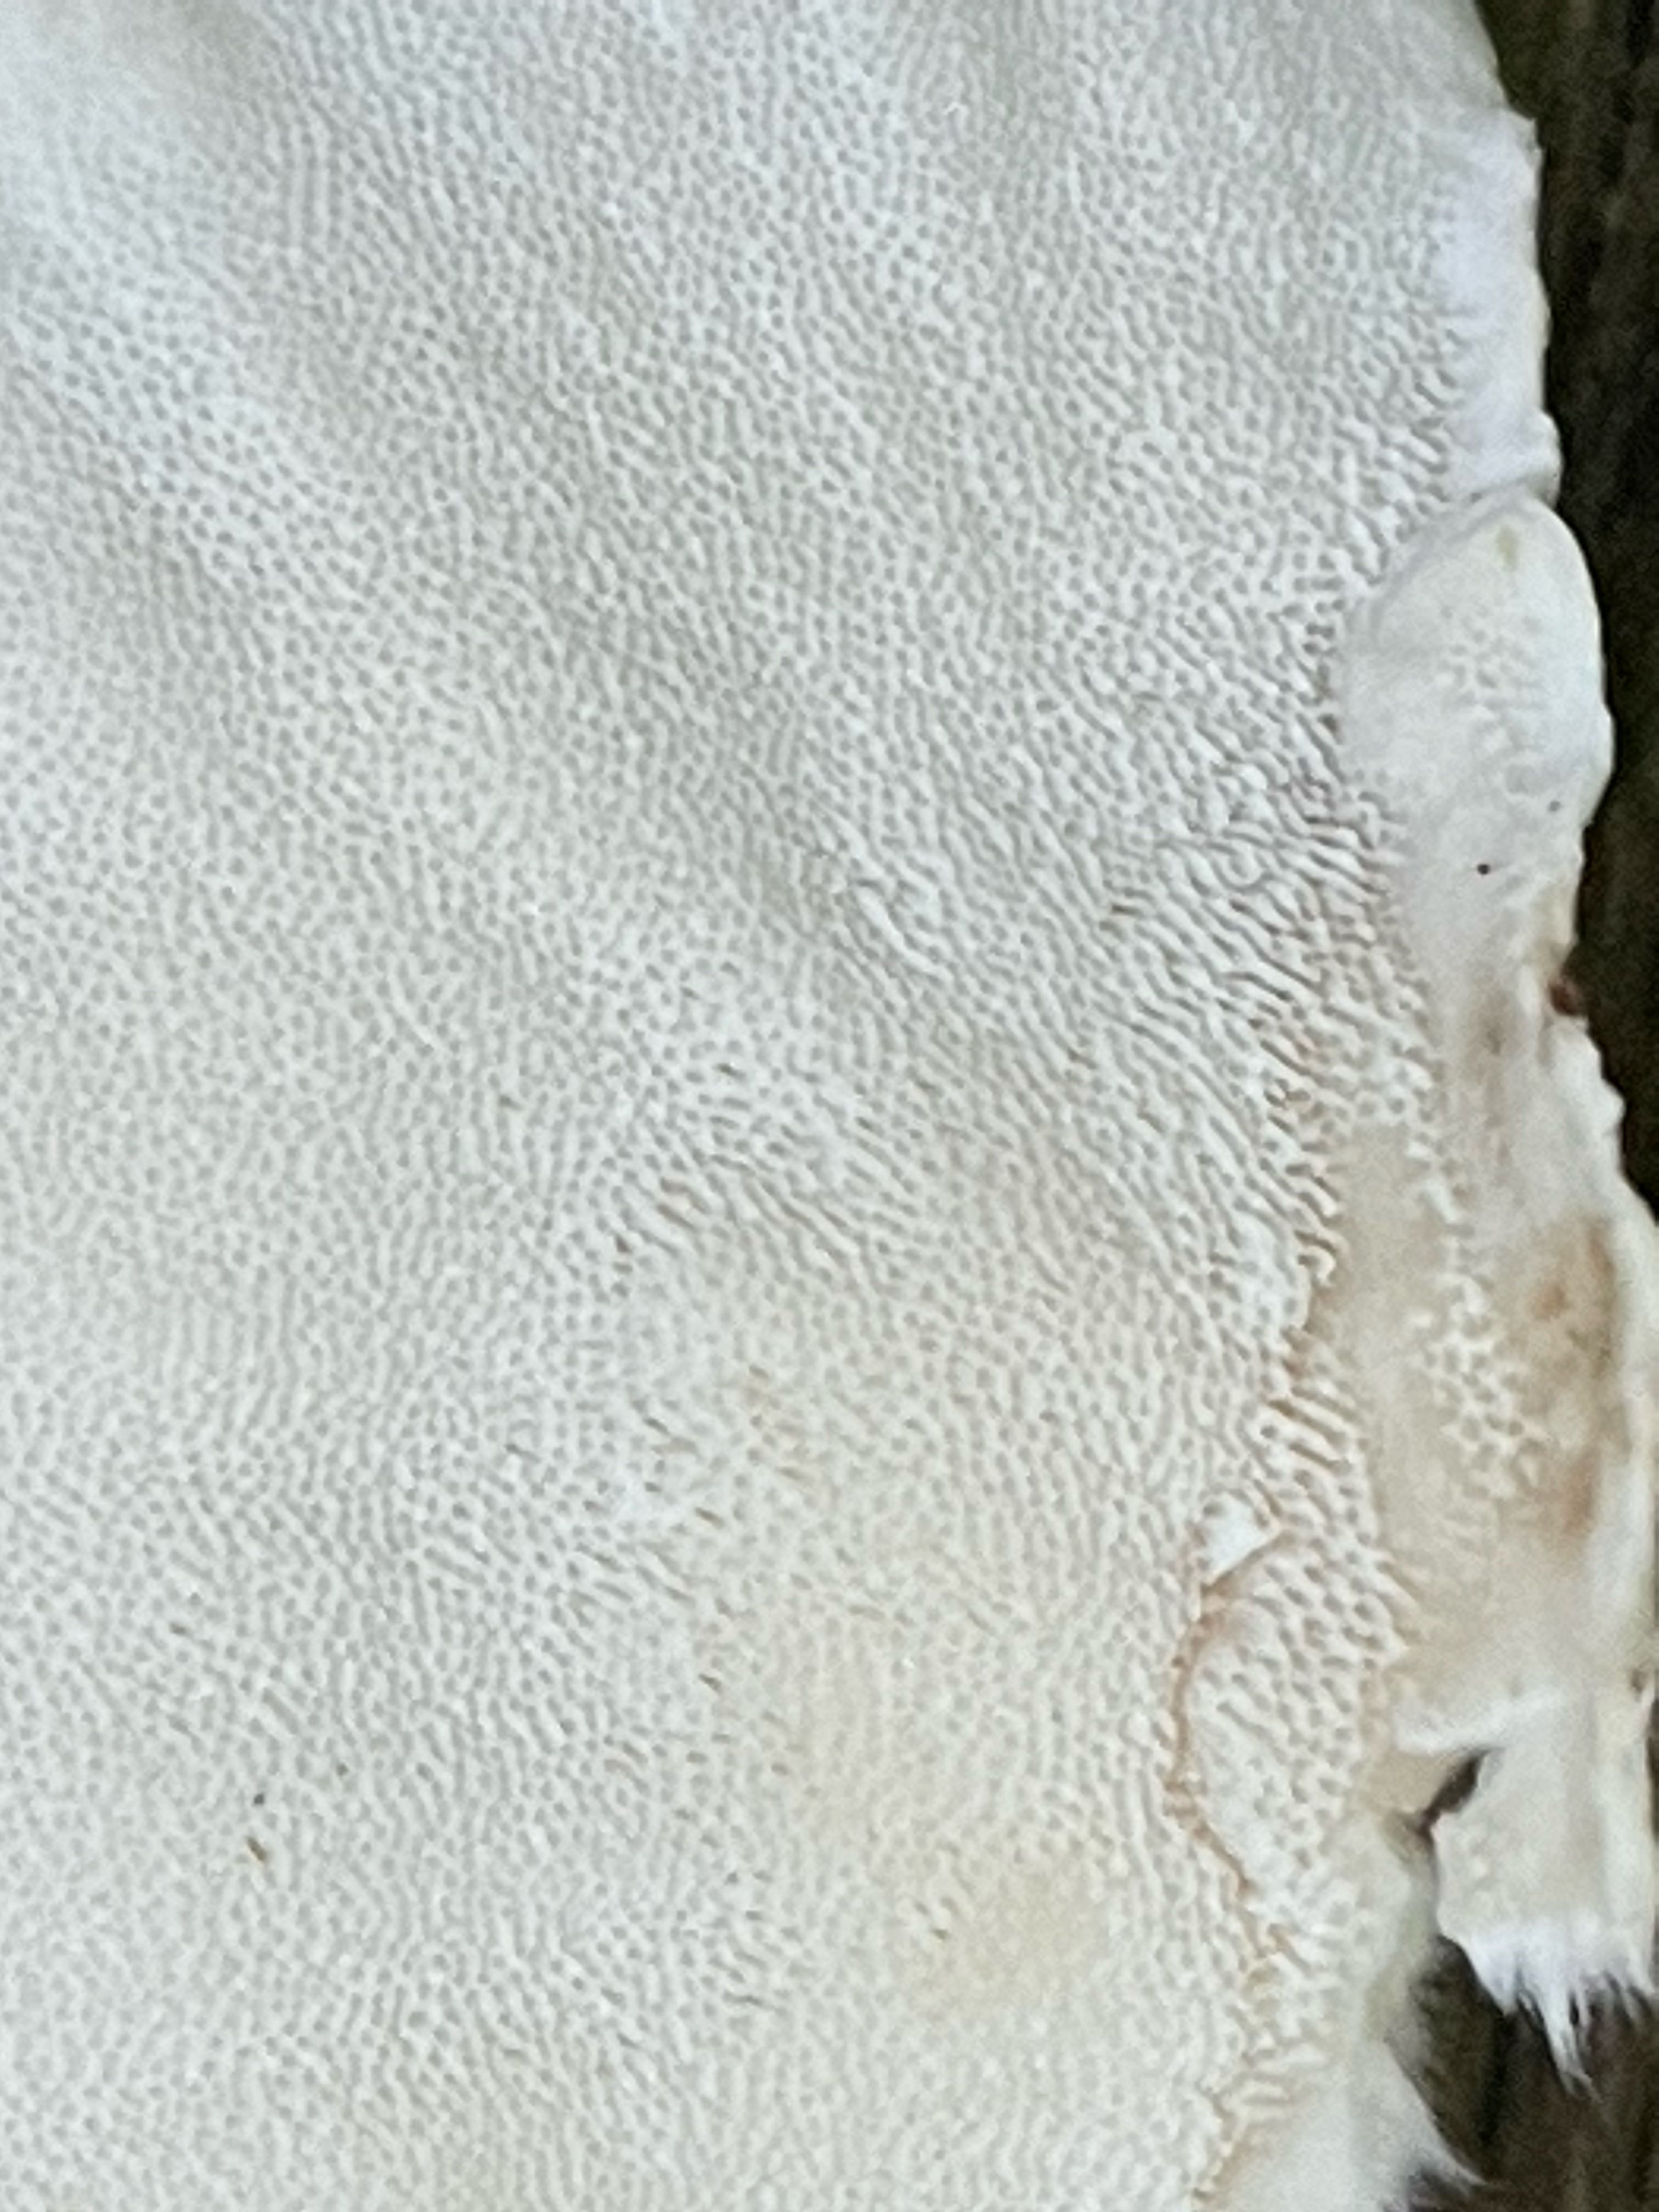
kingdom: Fungi
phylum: Basidiomycota
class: Agaricomycetes
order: Polyporales
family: Polyporaceae
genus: Trametes
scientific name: Trametes versicolor
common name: broget læderporesvamp
